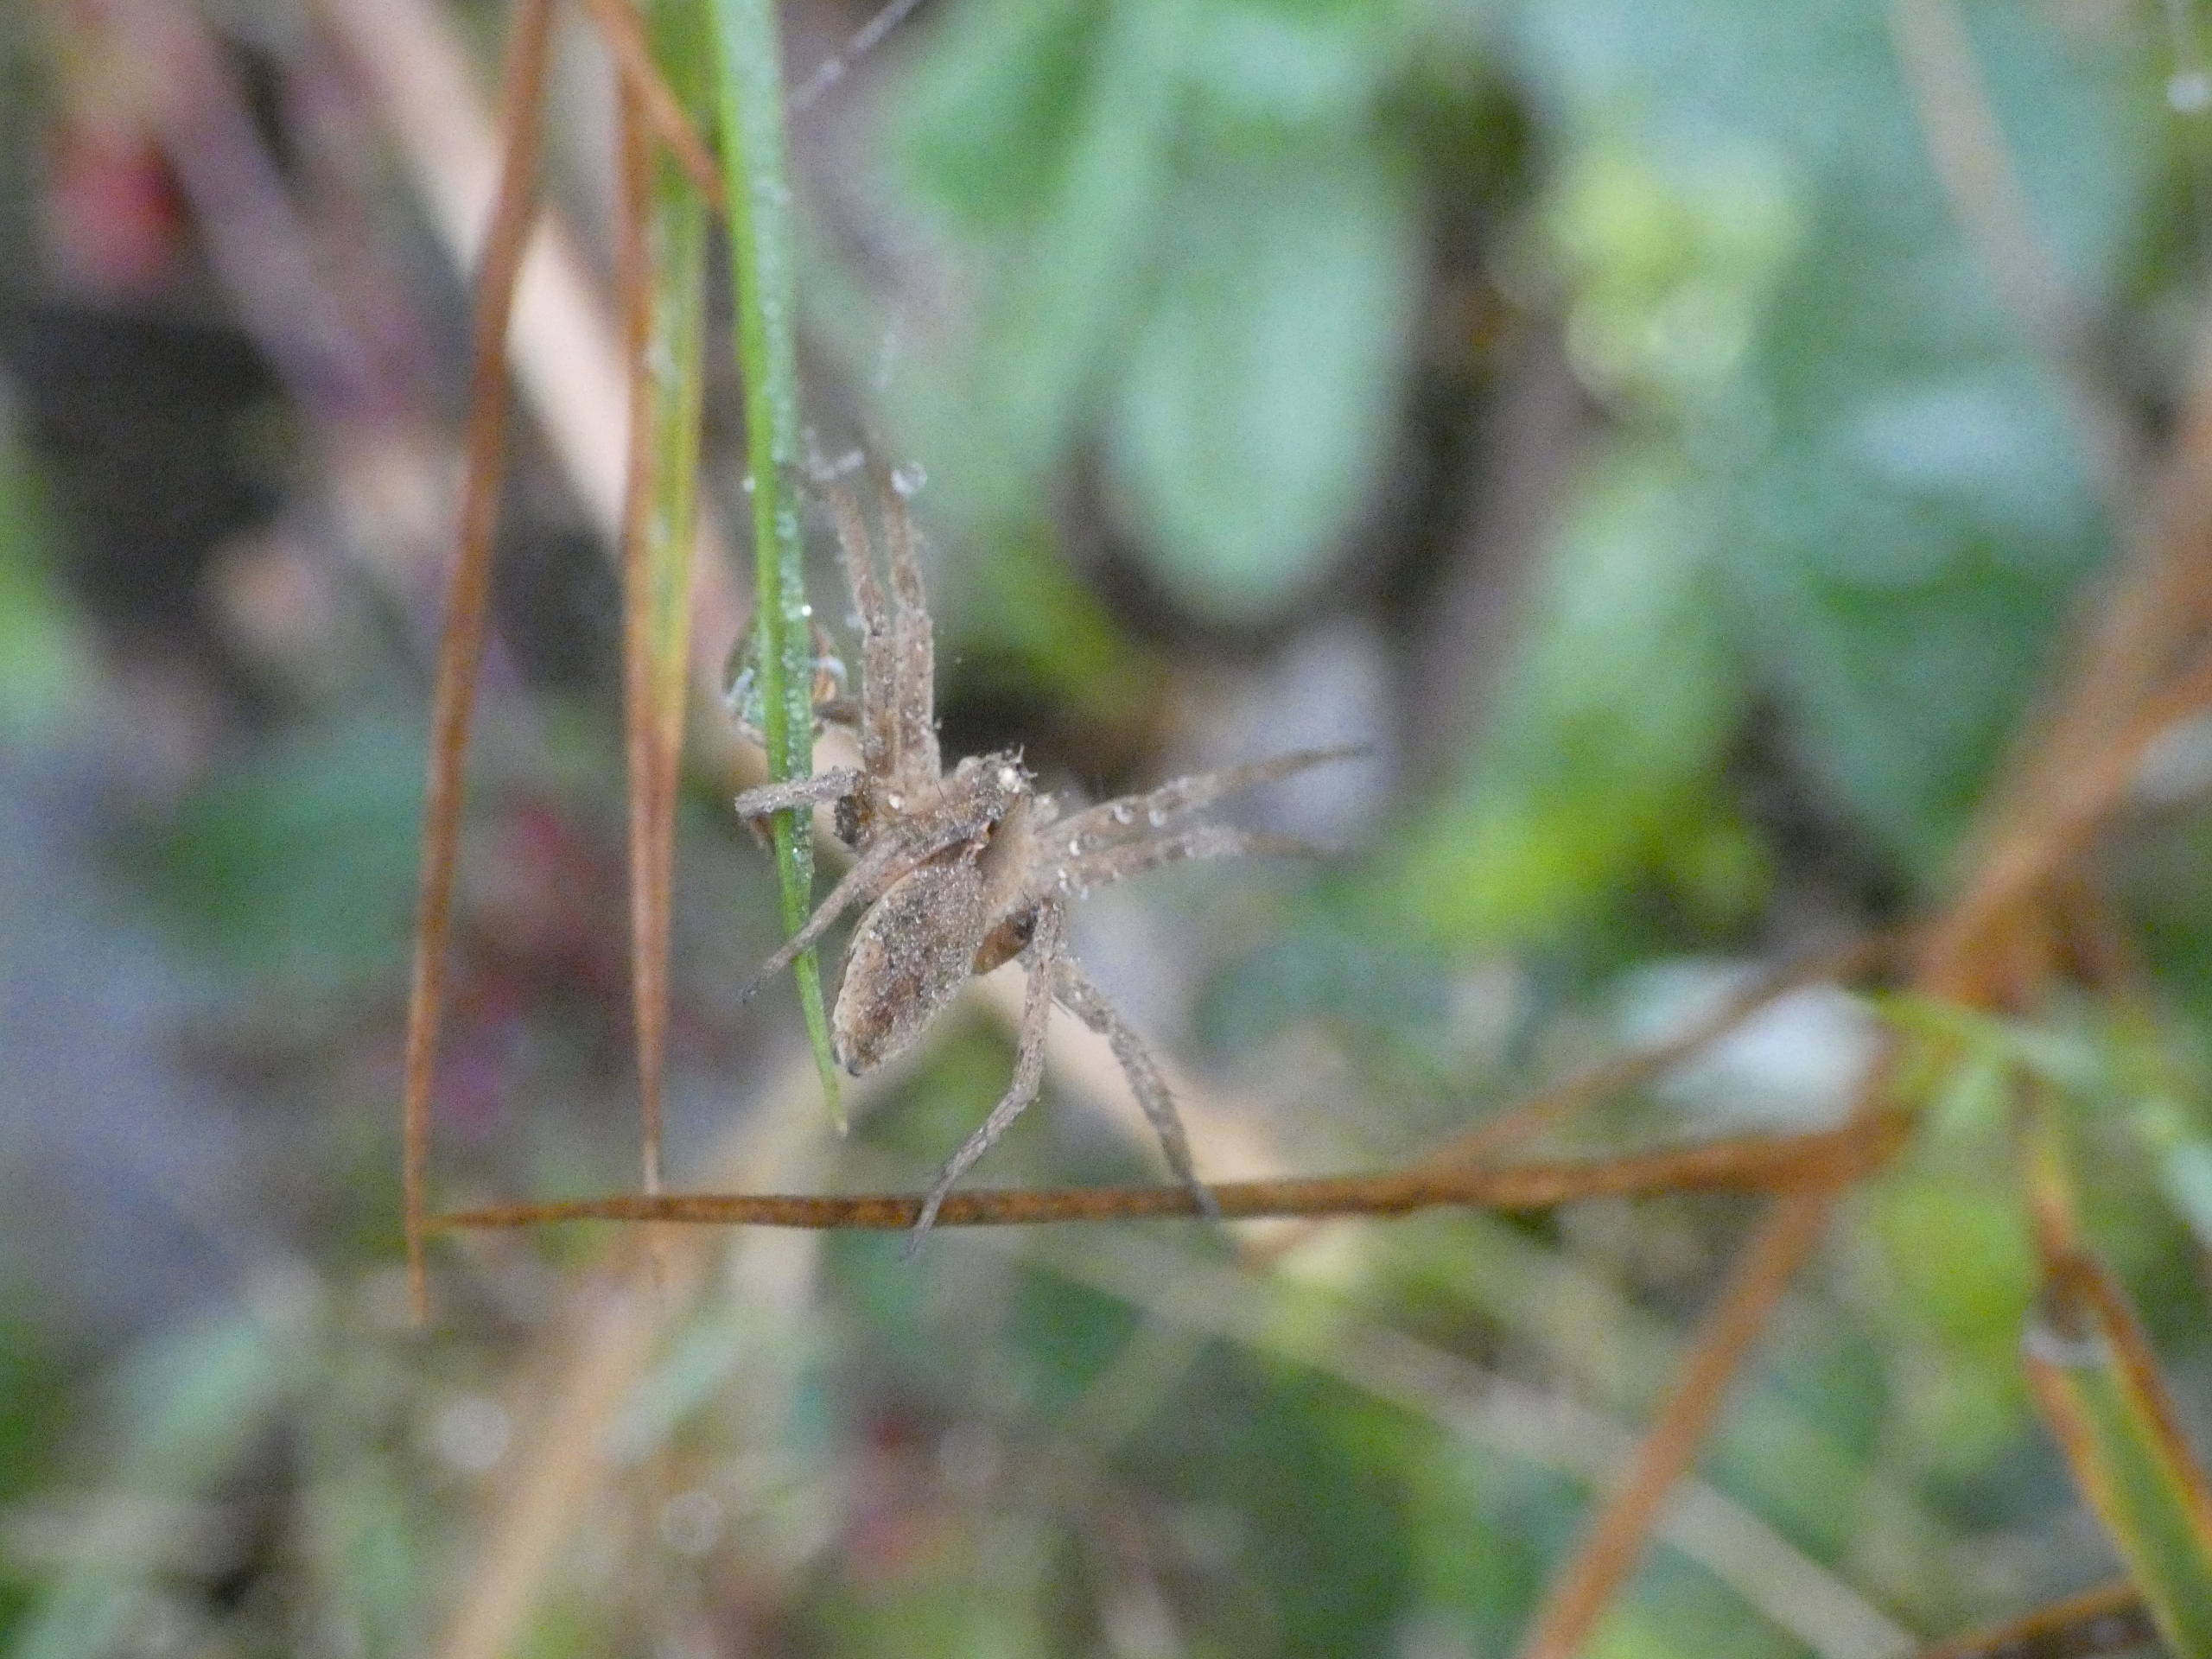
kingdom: Animalia
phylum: Arthropoda
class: Arachnida
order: Araneae
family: Pisauridae
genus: Pisaura
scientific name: Pisaura mirabilis
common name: Almindelig rovedderkop
